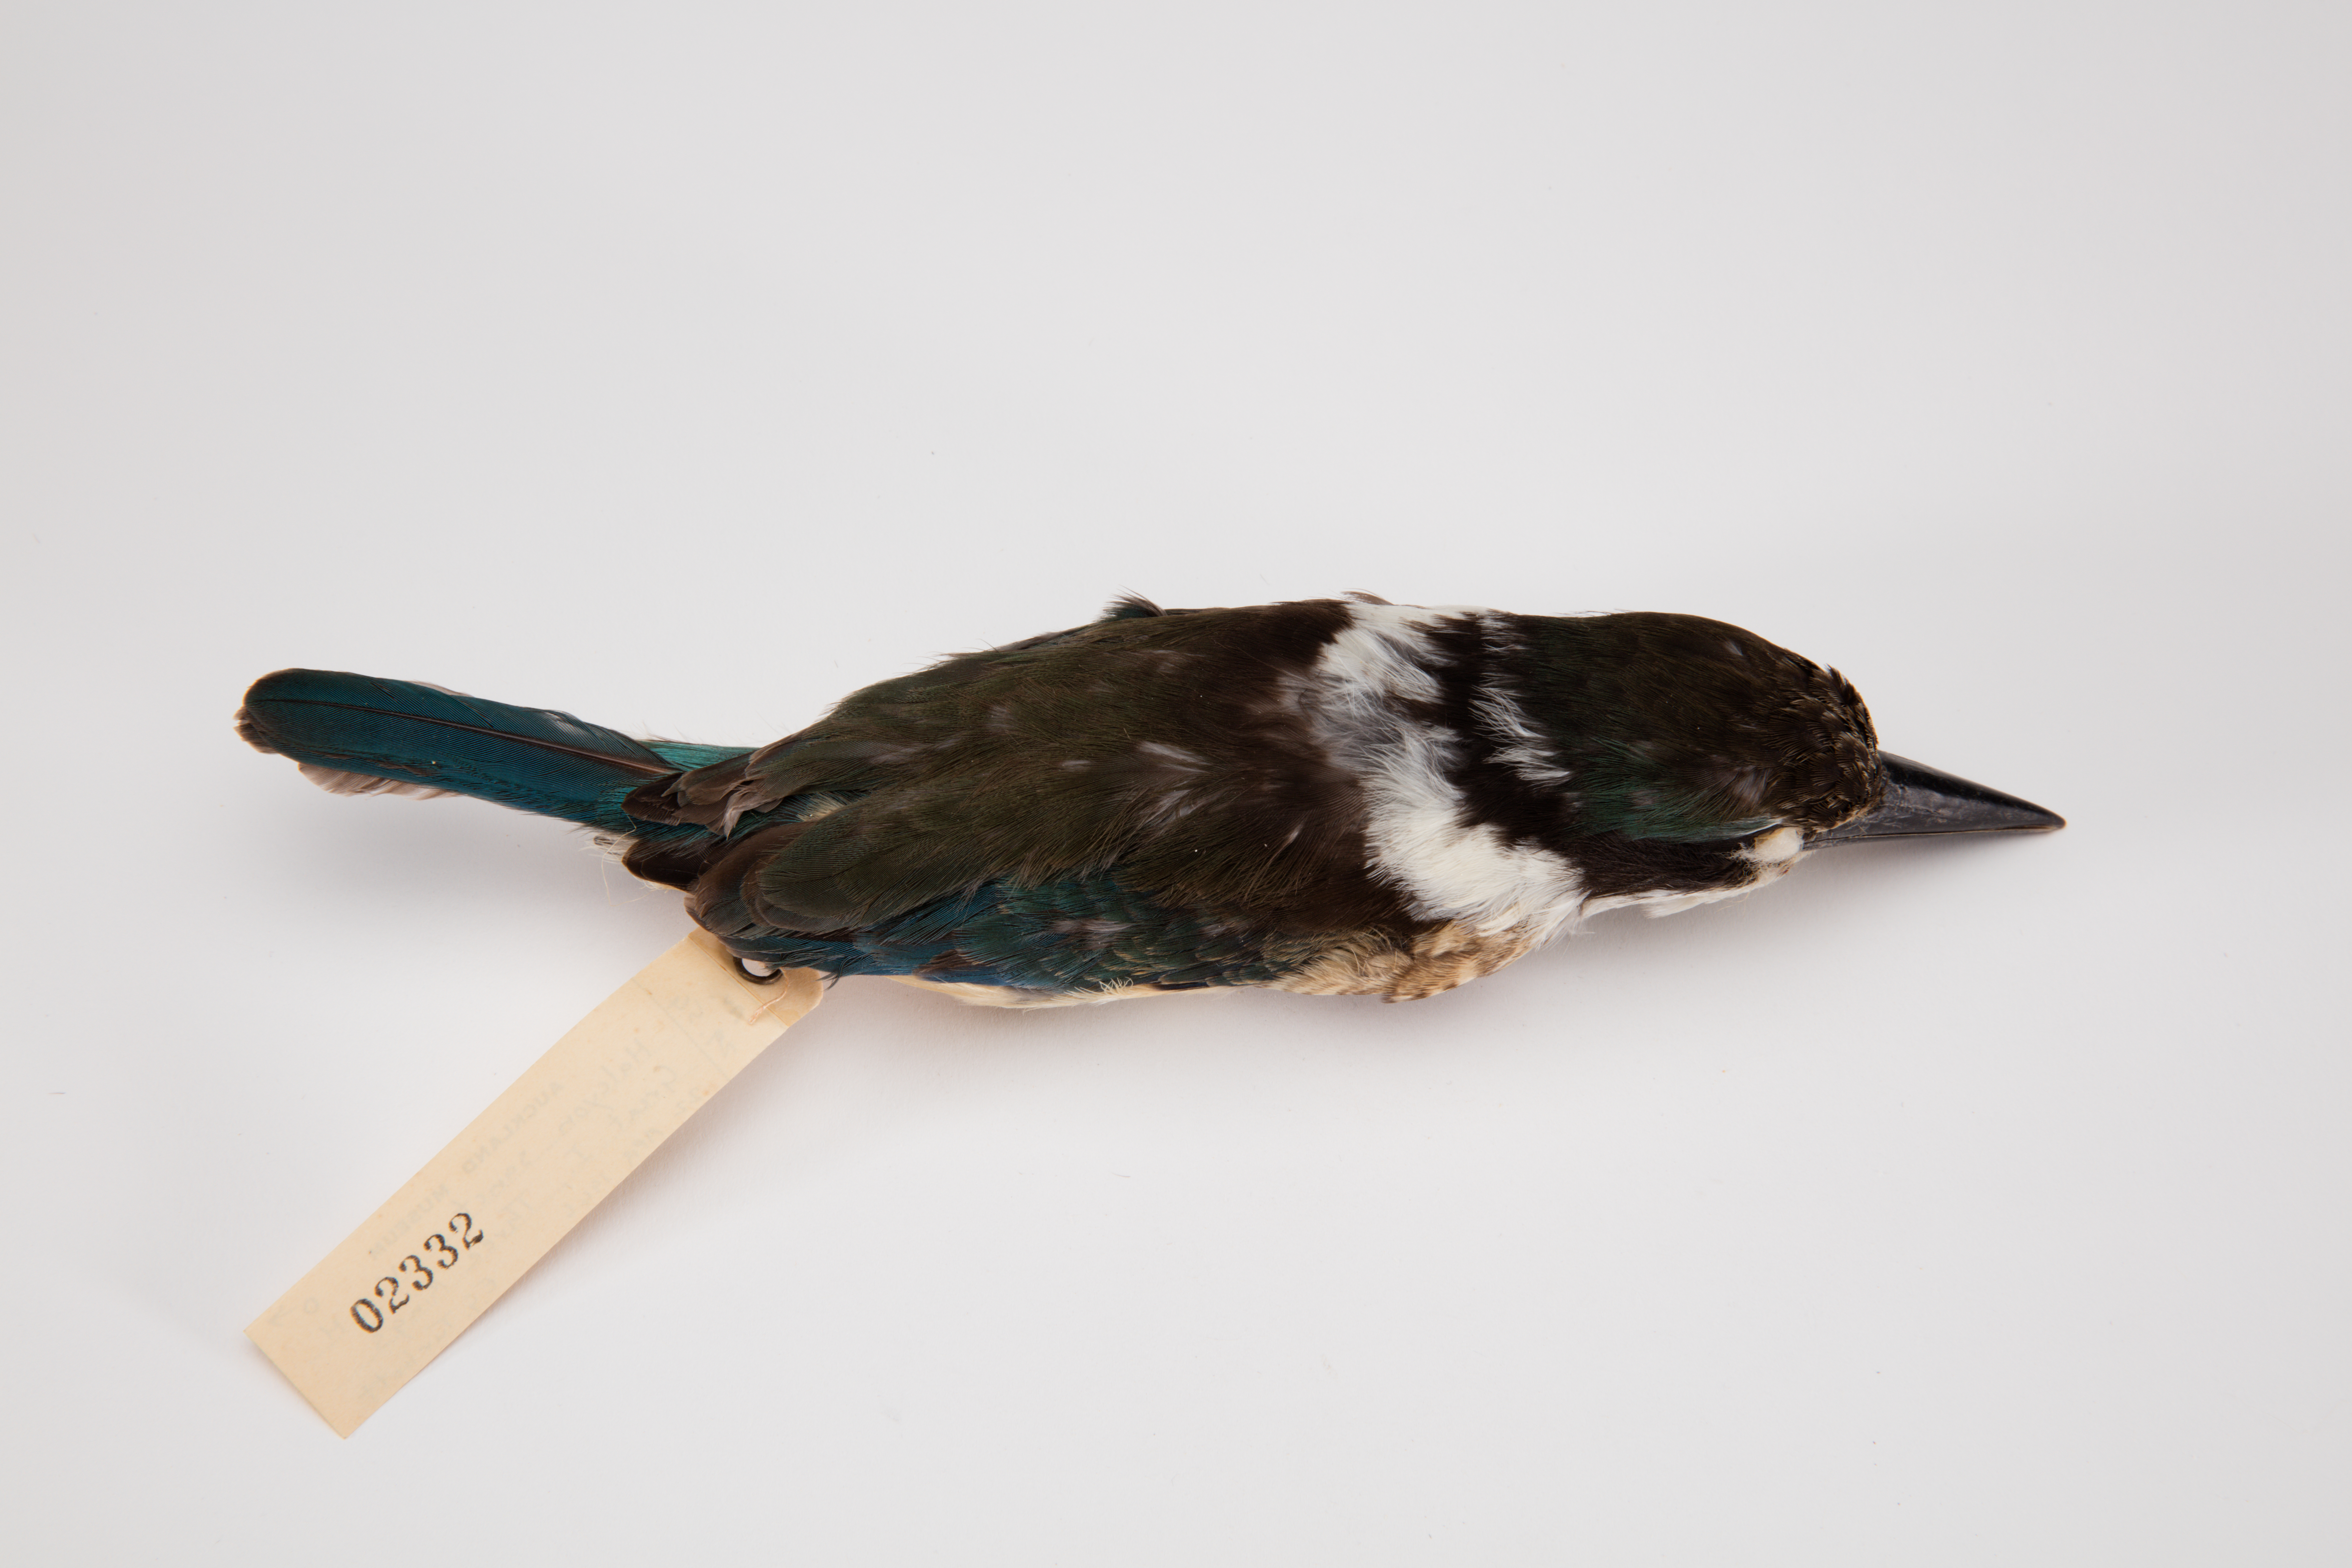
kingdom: Animalia
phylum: Chordata
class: Aves
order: Coraciiformes
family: Alcedinidae
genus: Todiramphus
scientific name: Todiramphus sanctus
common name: Sacred kingfisher
